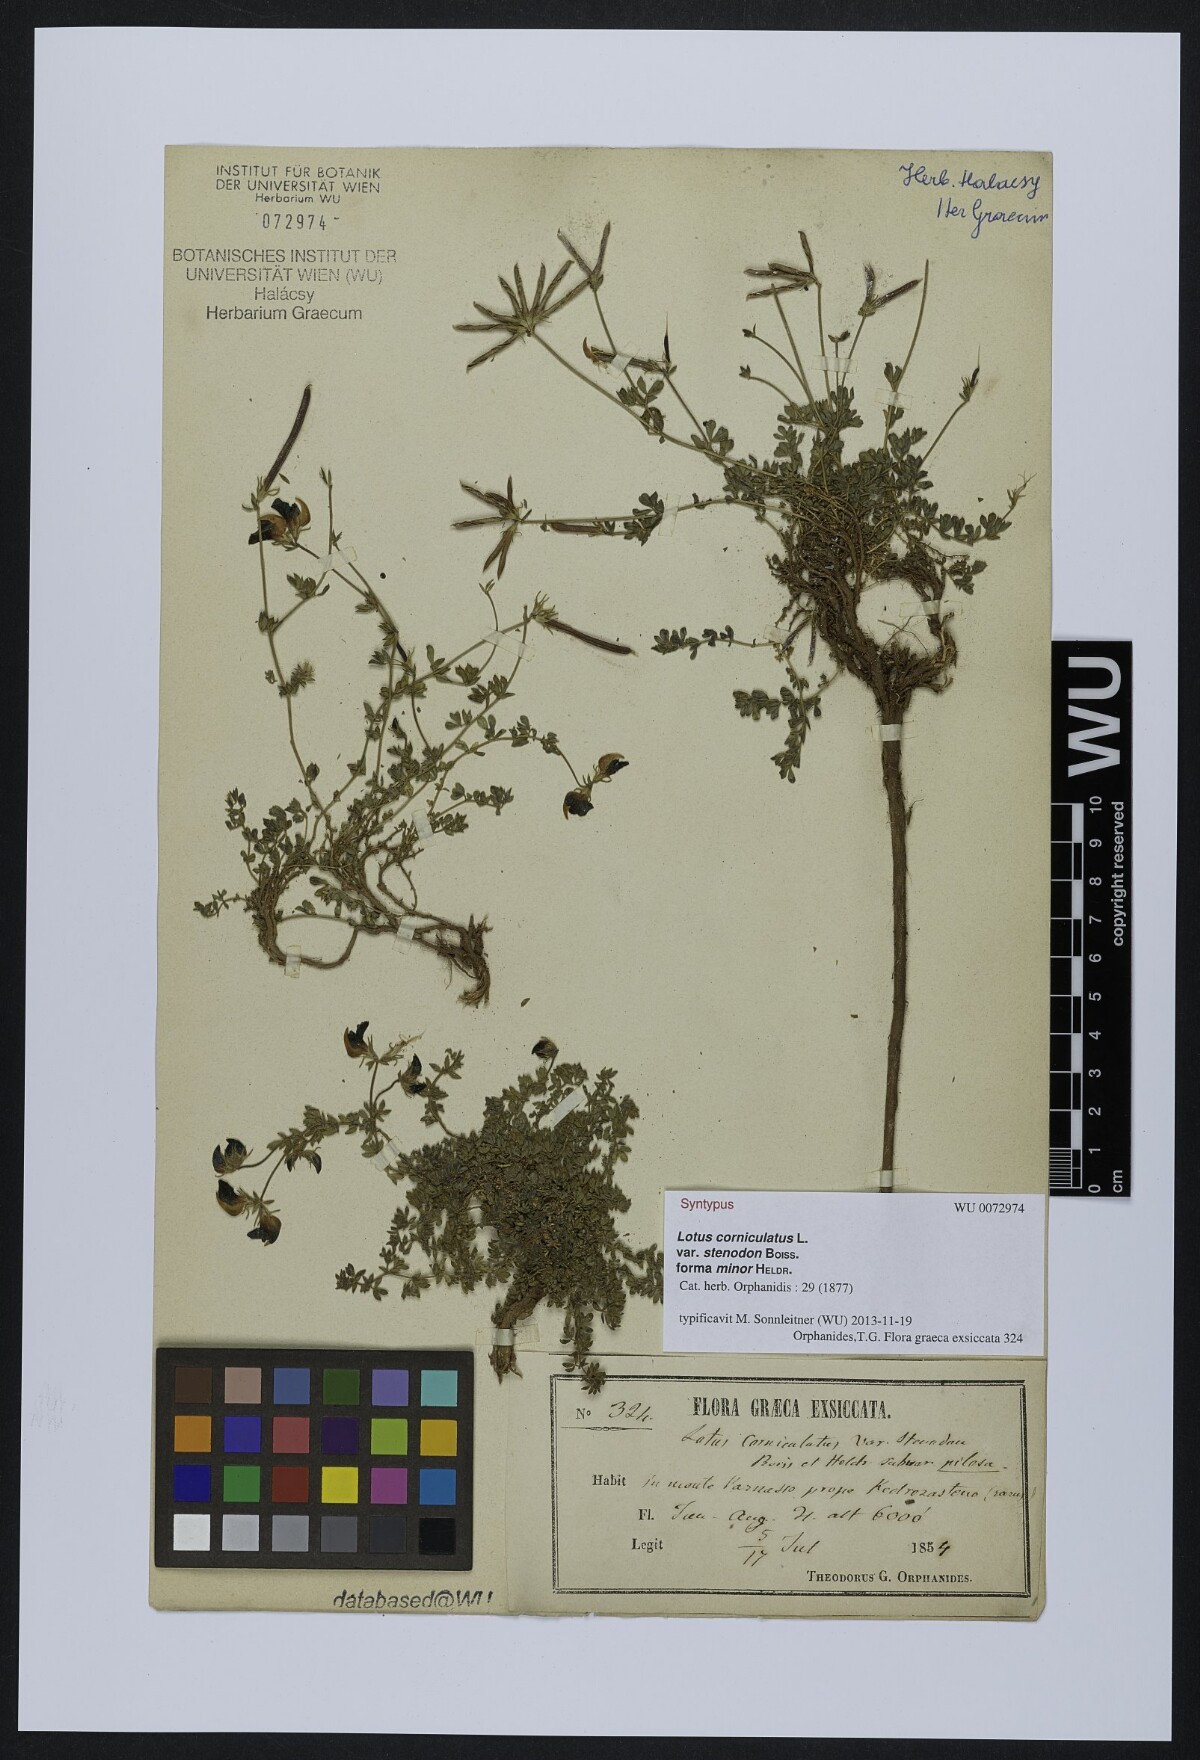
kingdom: Plantae
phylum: Tracheophyta
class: Magnoliopsida
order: Fabales
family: Fabaceae
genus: Lotus
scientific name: Lotus corniculatus
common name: Common bird's-foot-trefoil
